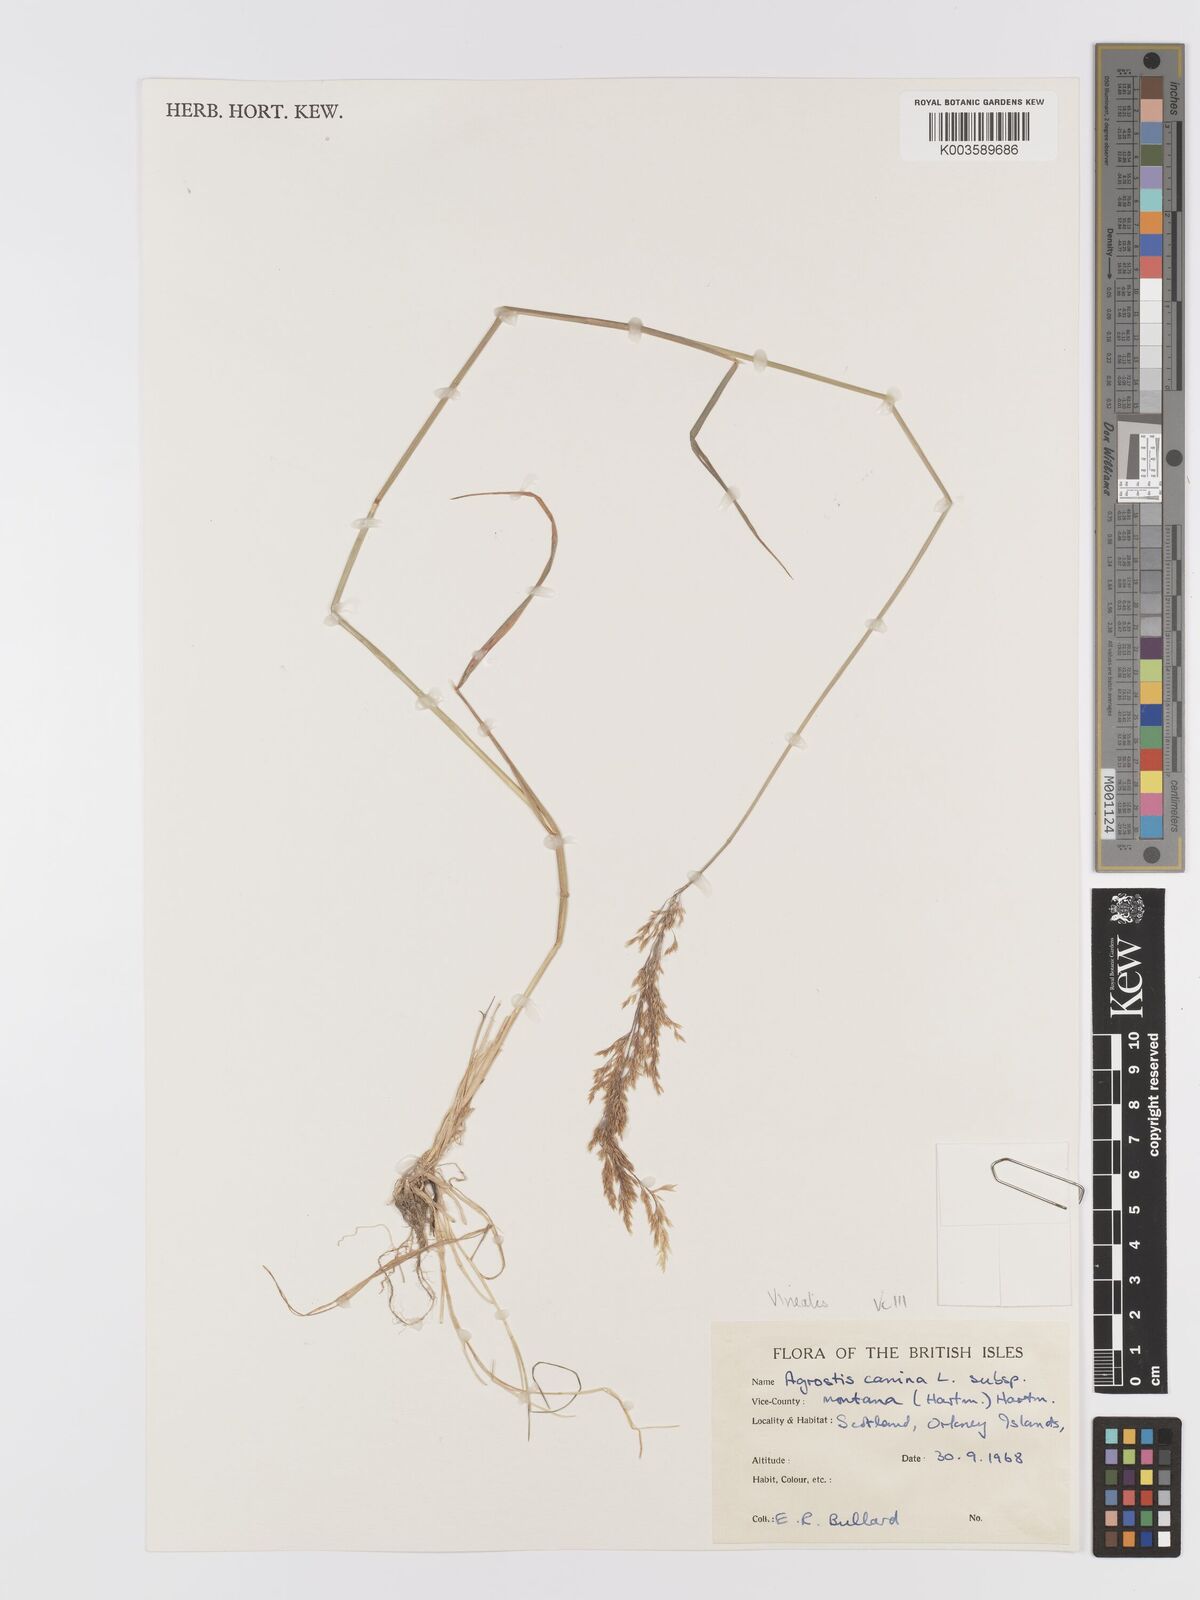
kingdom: Plantae
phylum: Tracheophyta
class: Liliopsida
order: Poales
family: Poaceae
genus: Agrostis
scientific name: Agrostis
